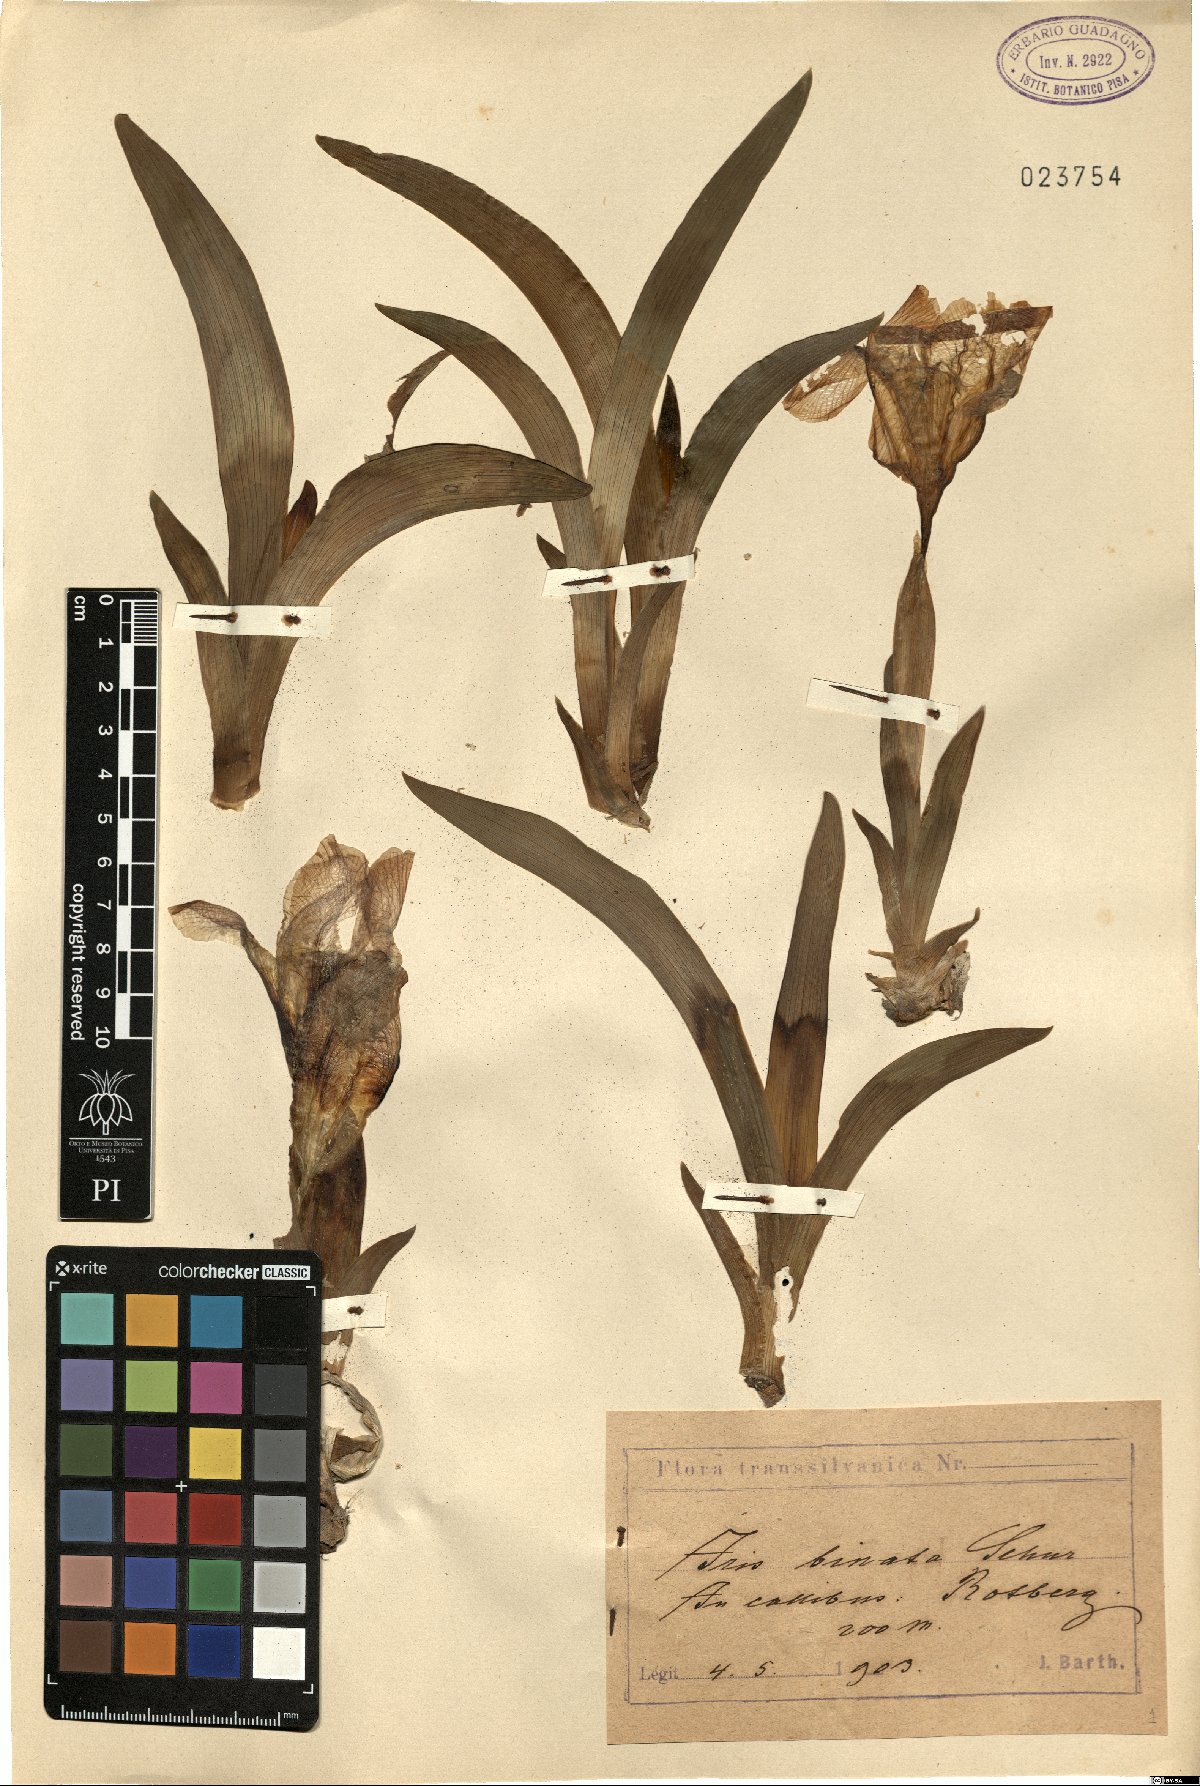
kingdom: Plantae
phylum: Tracheophyta
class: Liliopsida
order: Asparagales
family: Iridaceae
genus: Iris
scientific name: Iris binata
